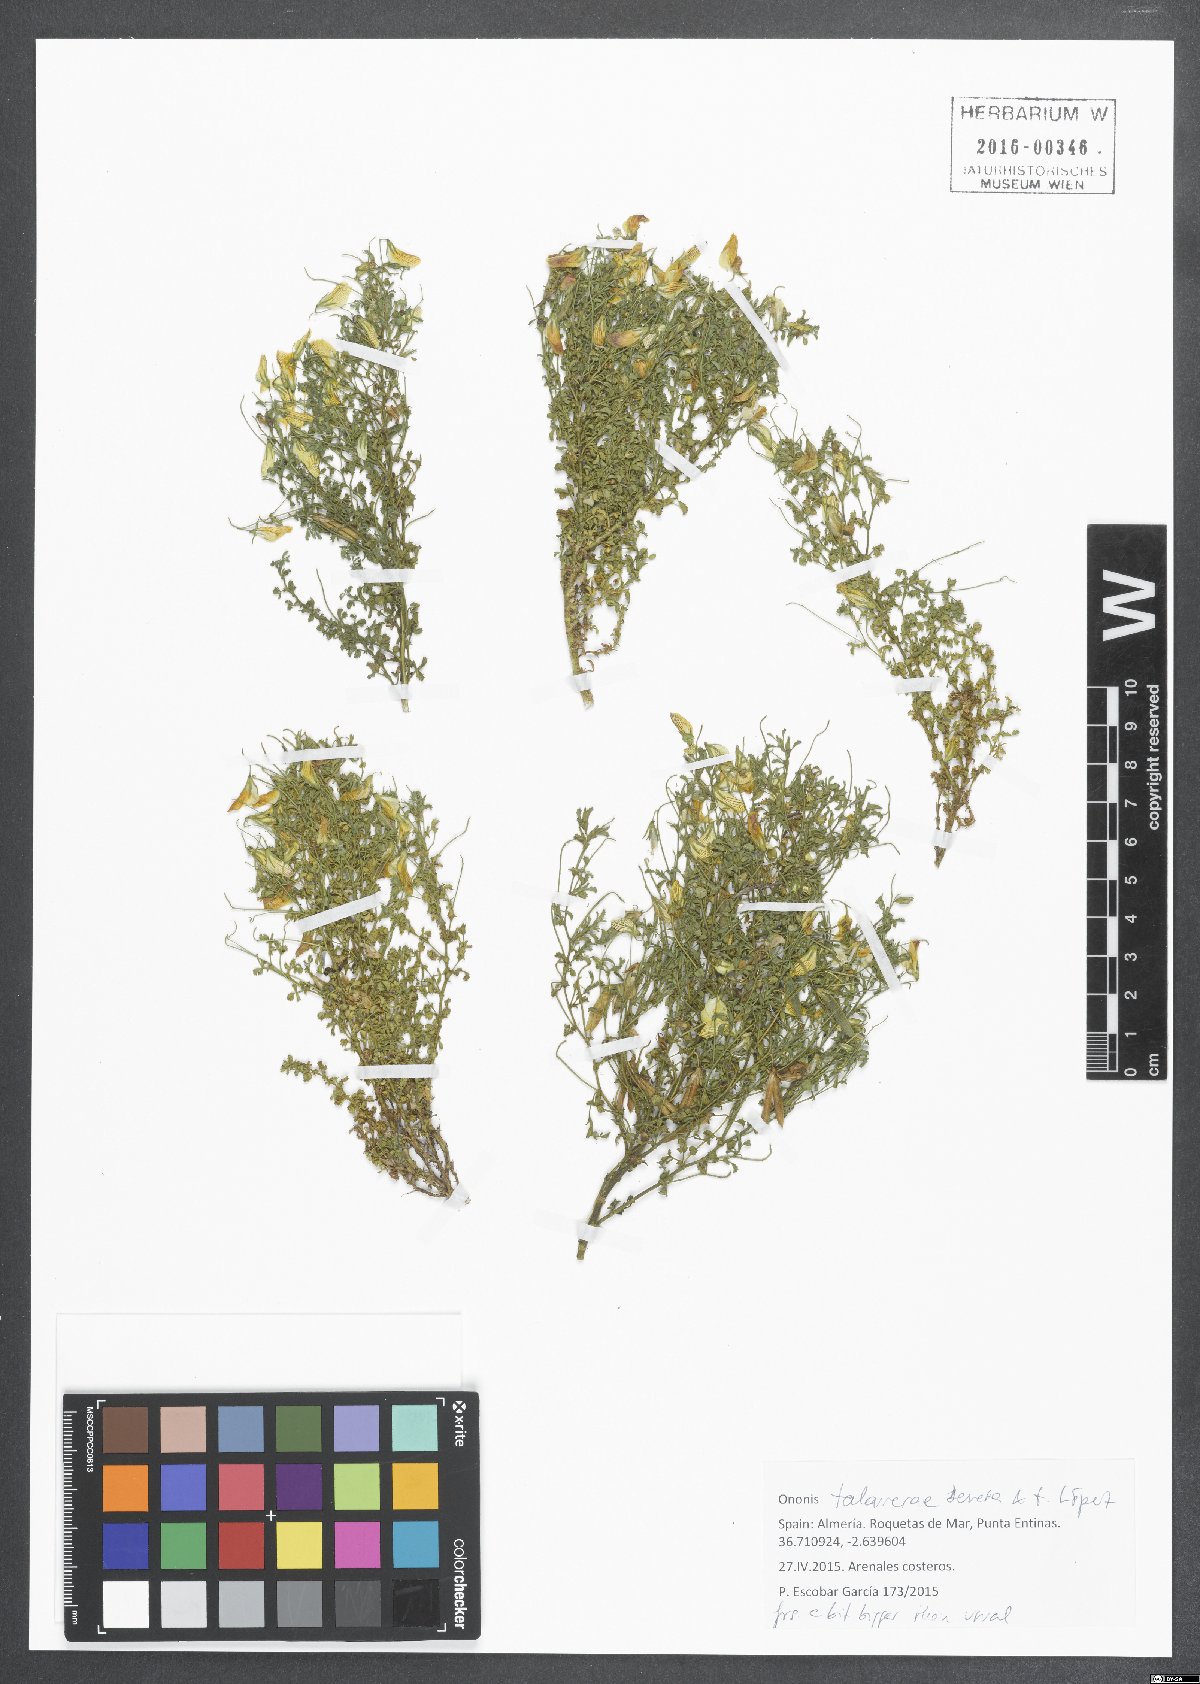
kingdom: Plantae
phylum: Tracheophyta
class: Magnoliopsida
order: Fabales
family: Fabaceae
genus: Ononis
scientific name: Ononis talaverae
